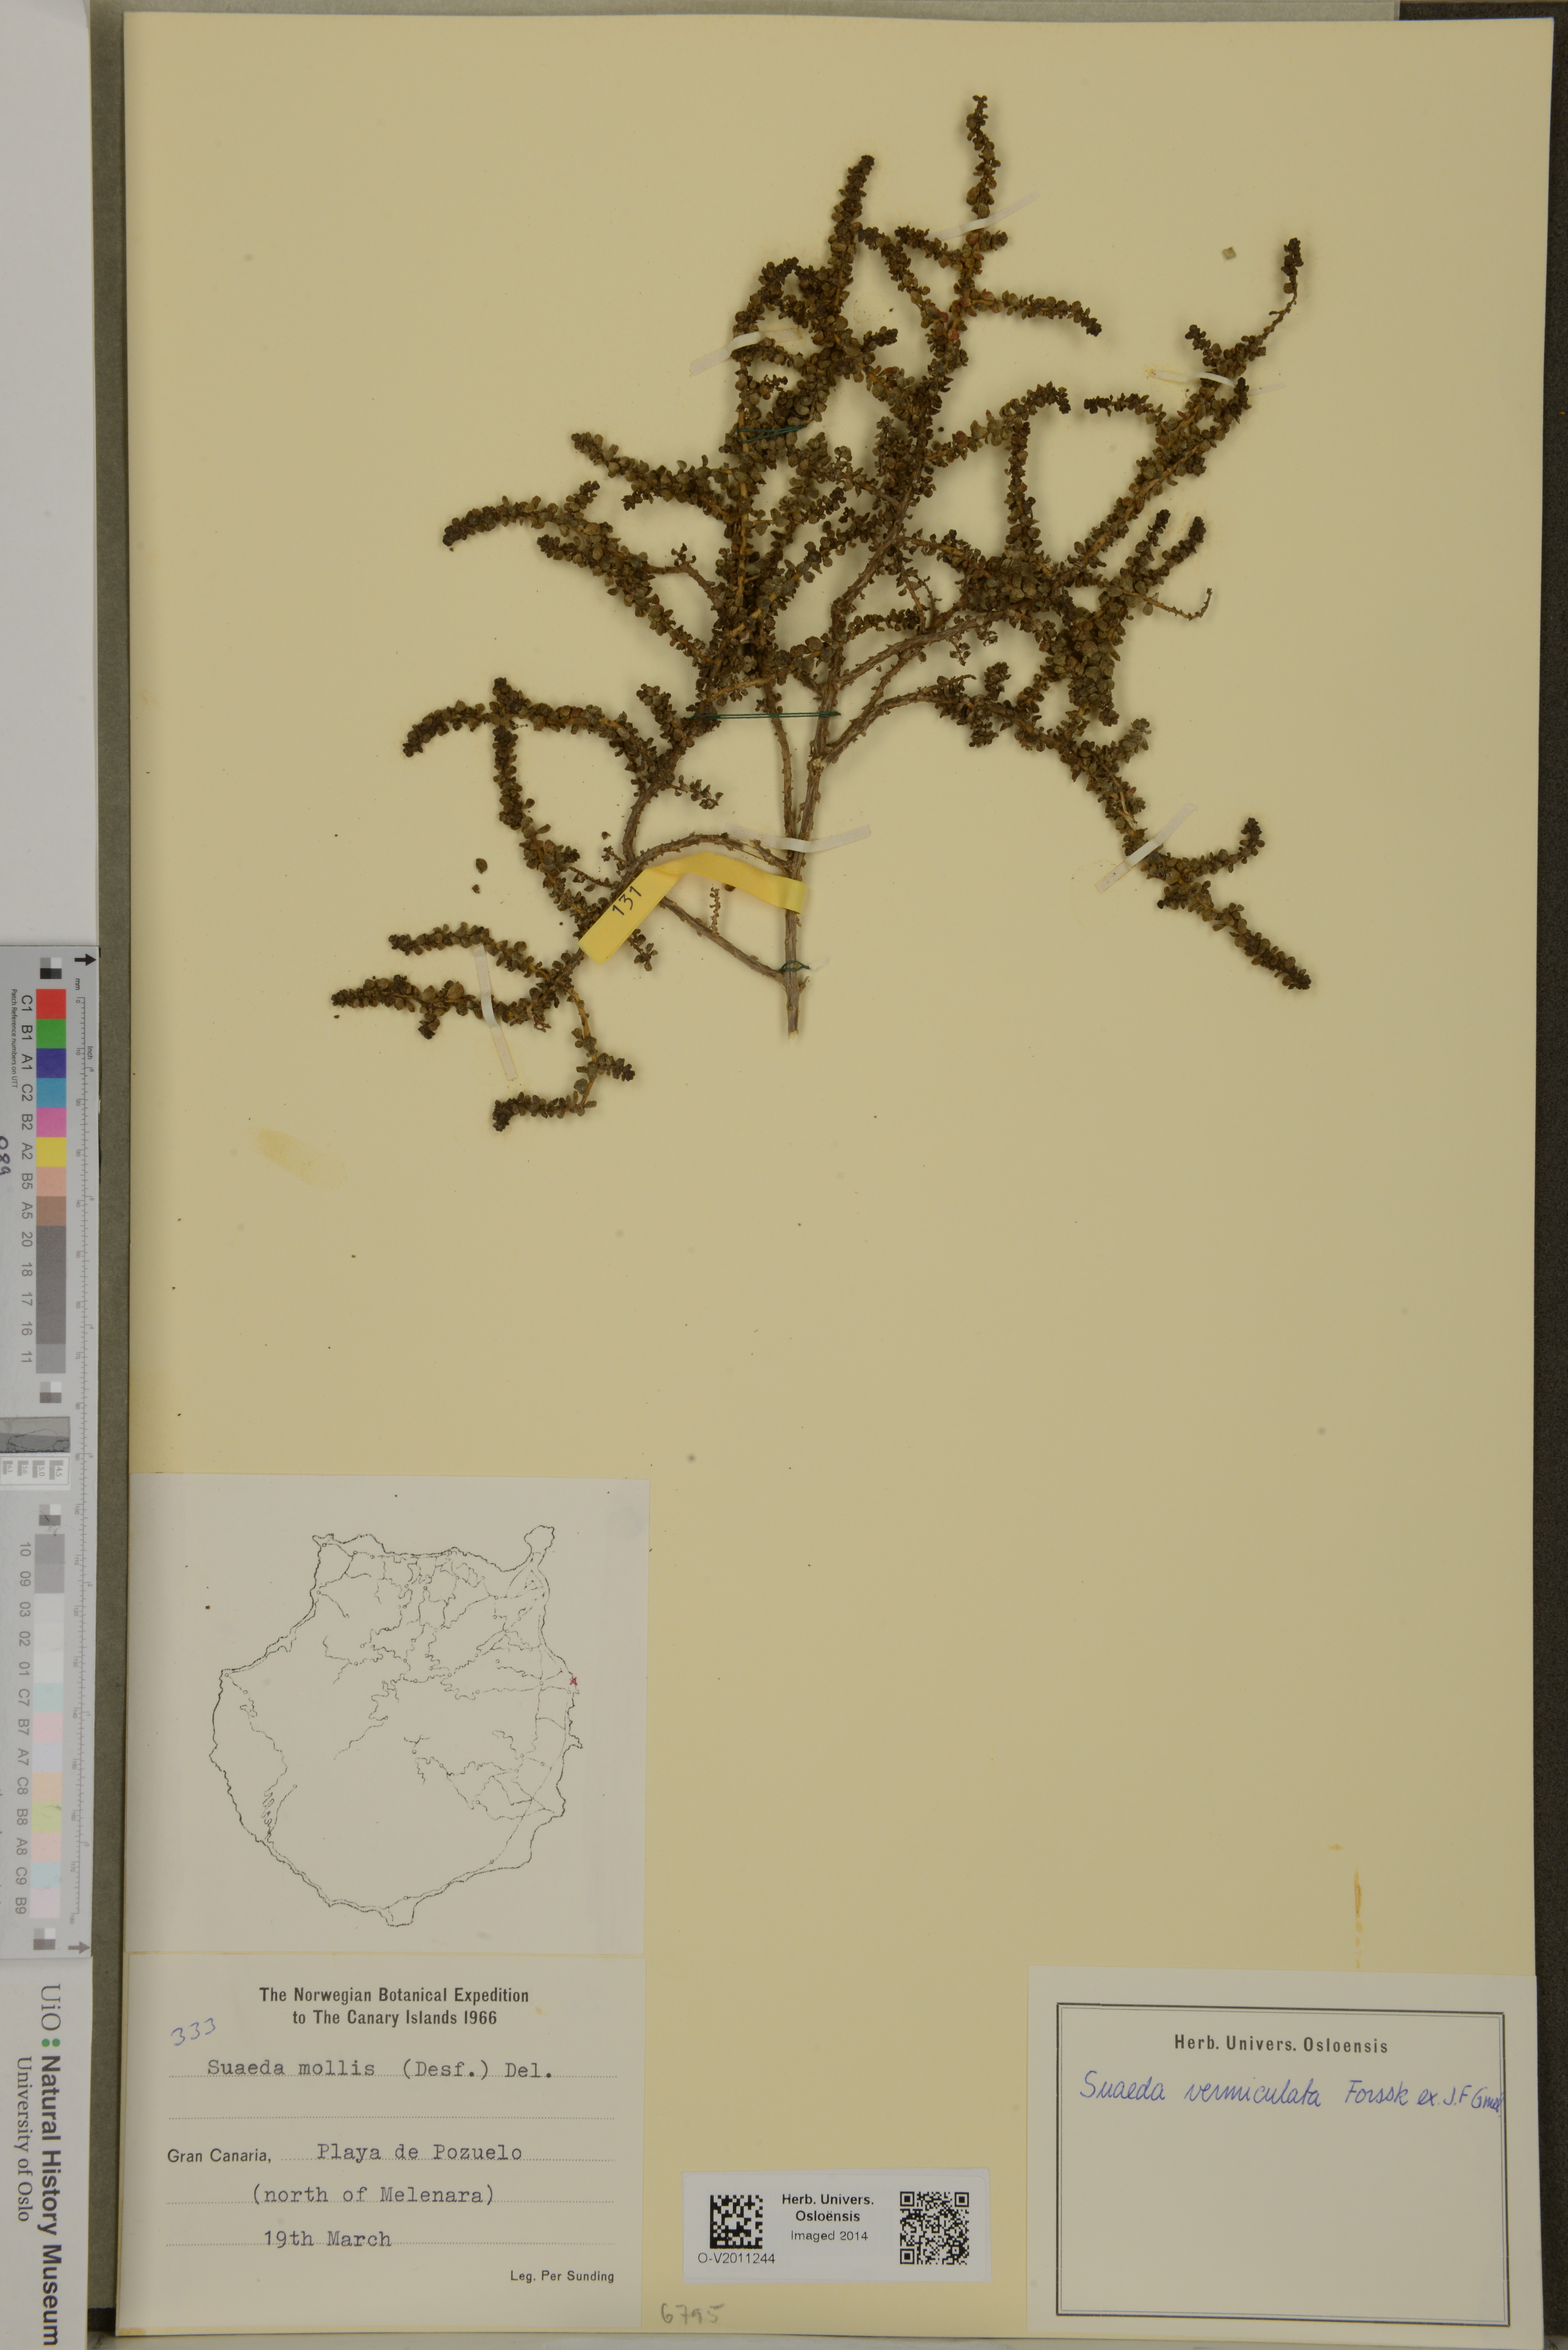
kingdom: Plantae
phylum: Tracheophyta
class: Magnoliopsida
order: Caryophyllales
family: Amaranthaceae
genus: Suaeda
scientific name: Suaeda vermiculata
